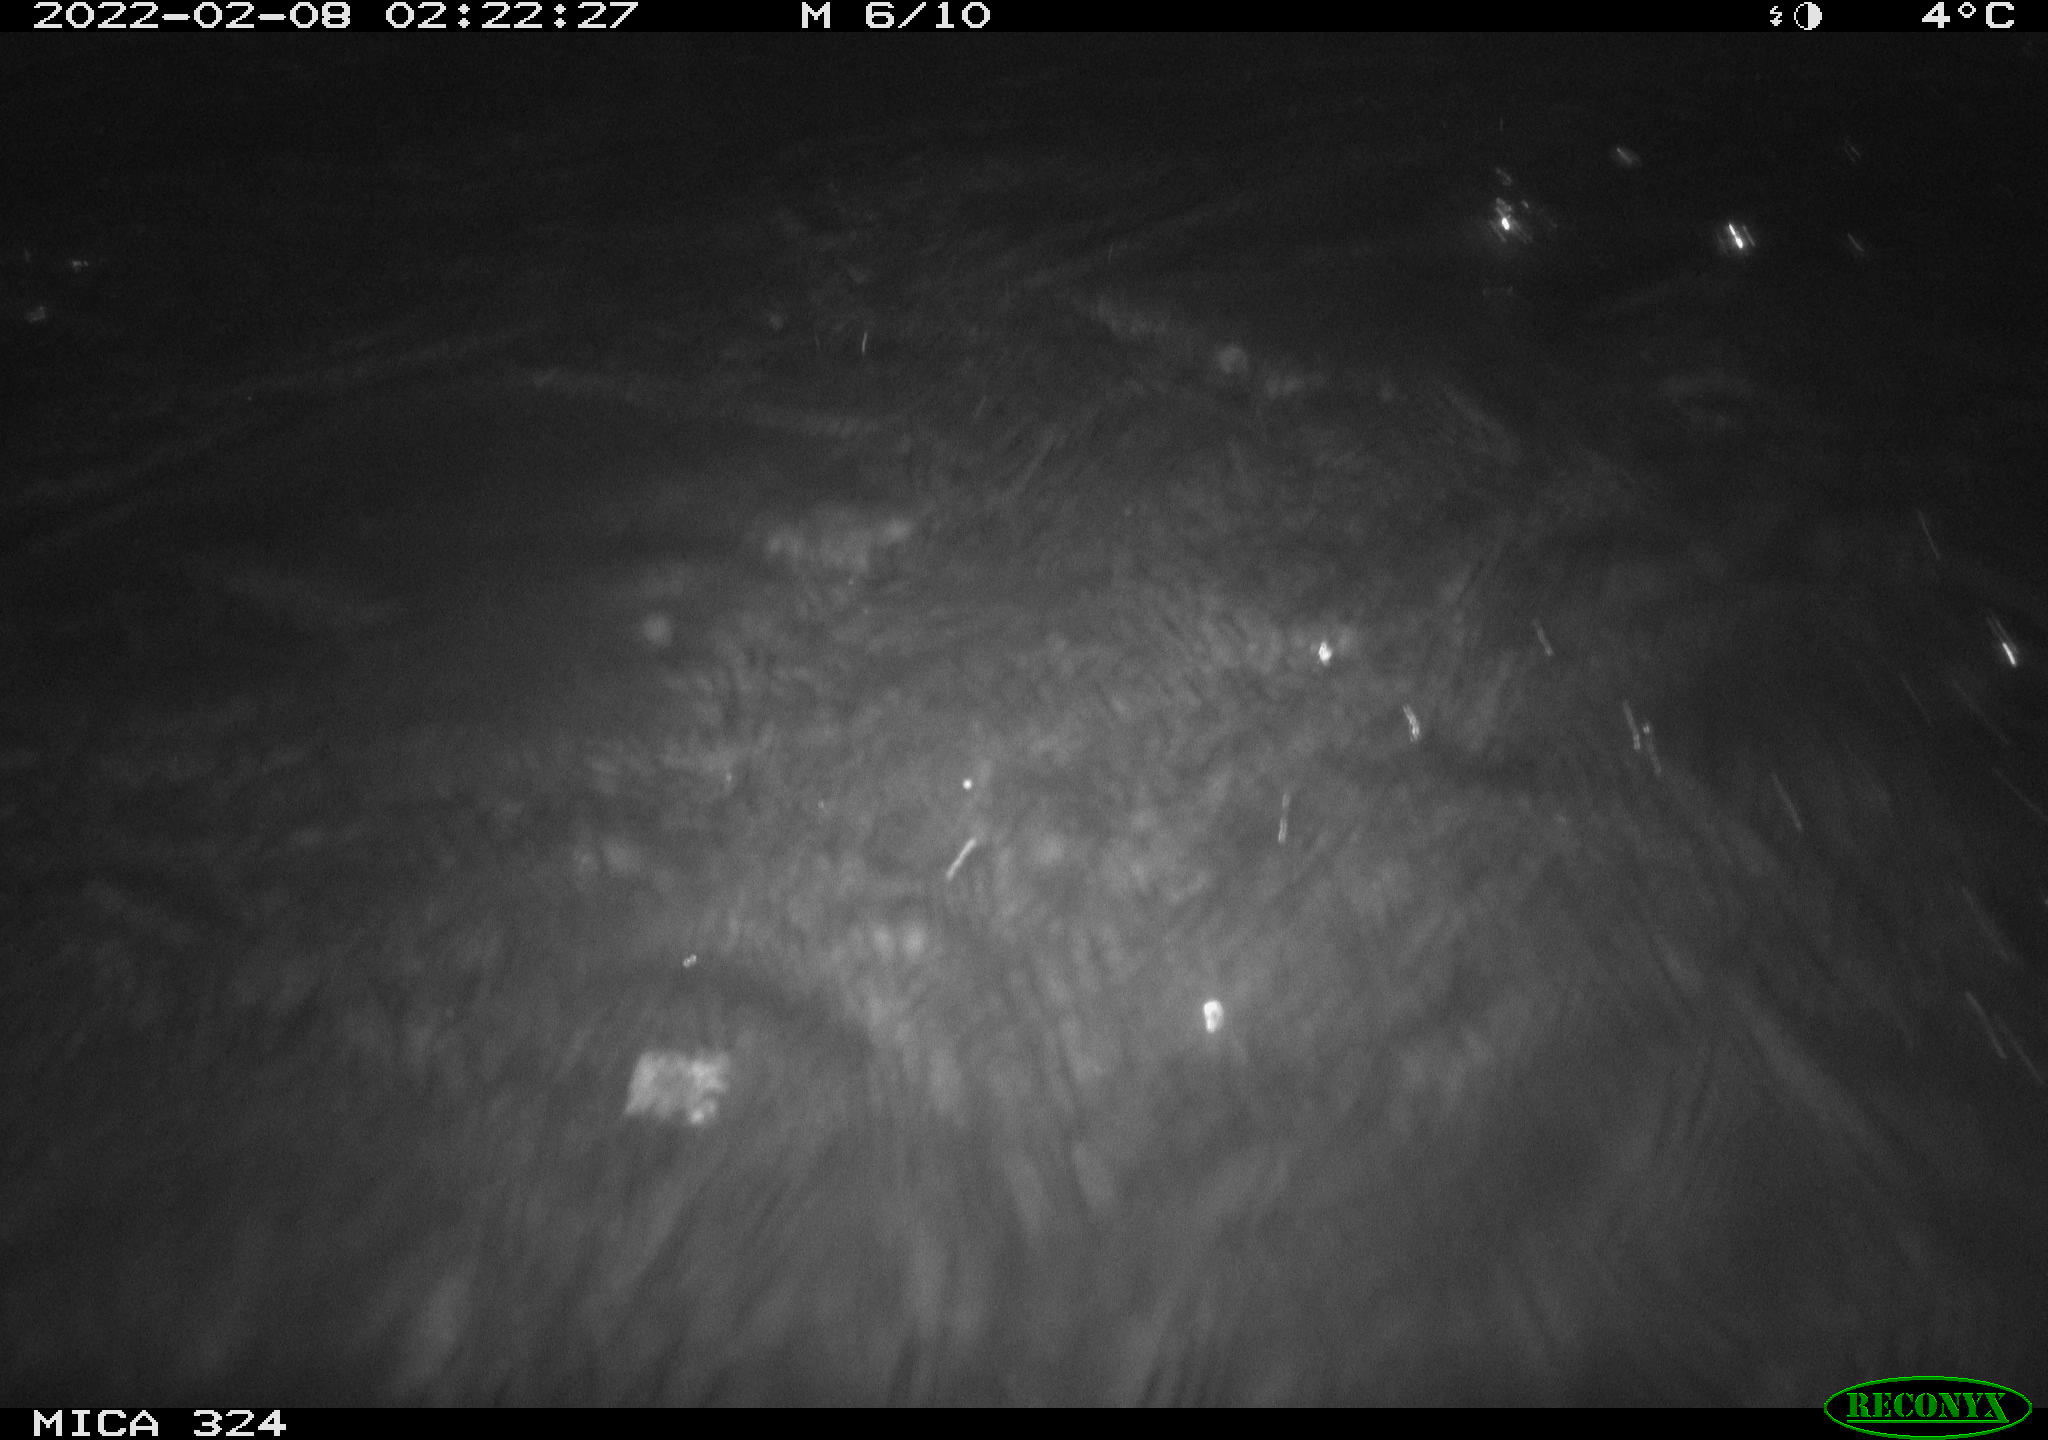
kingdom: Animalia
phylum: Chordata
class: Mammalia
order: Rodentia
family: Cricetidae
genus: Ondatra
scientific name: Ondatra zibethicus
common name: Muskrat
